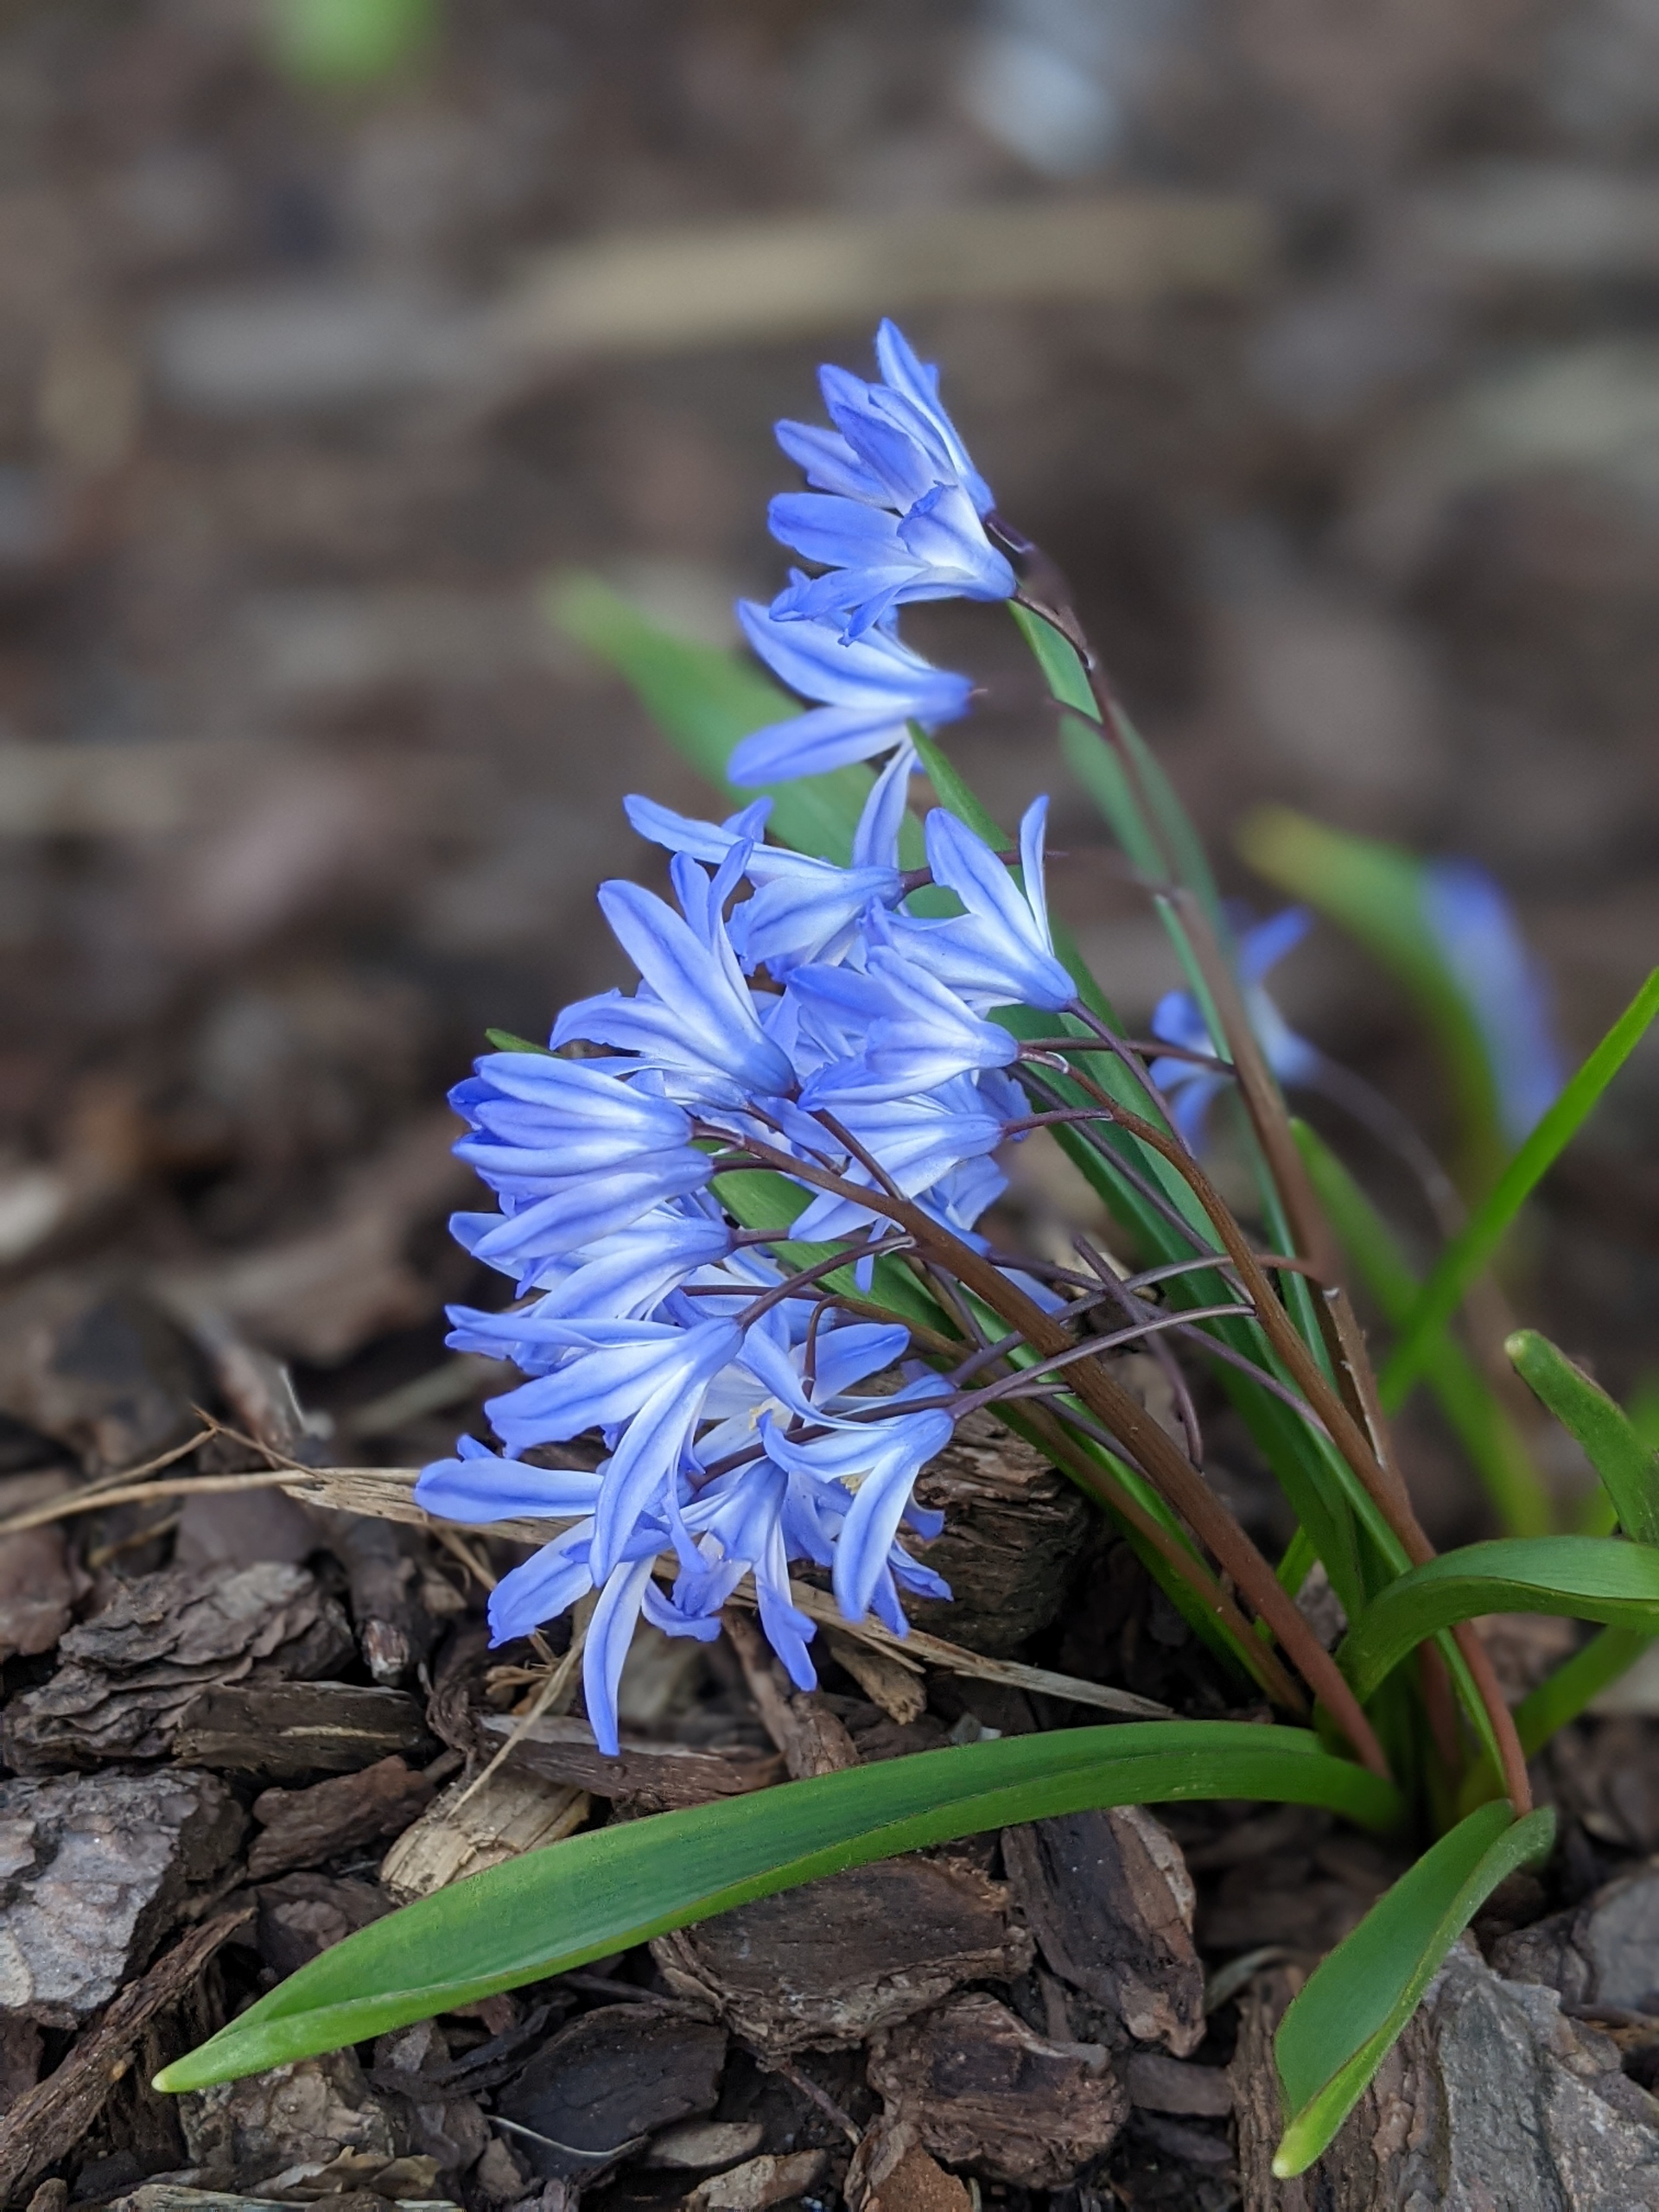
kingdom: Plantae
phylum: Tracheophyta
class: Liliopsida
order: Asparagales
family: Asparagaceae
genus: Scilla
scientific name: Scilla forbesii
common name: Almindelig snepryd
